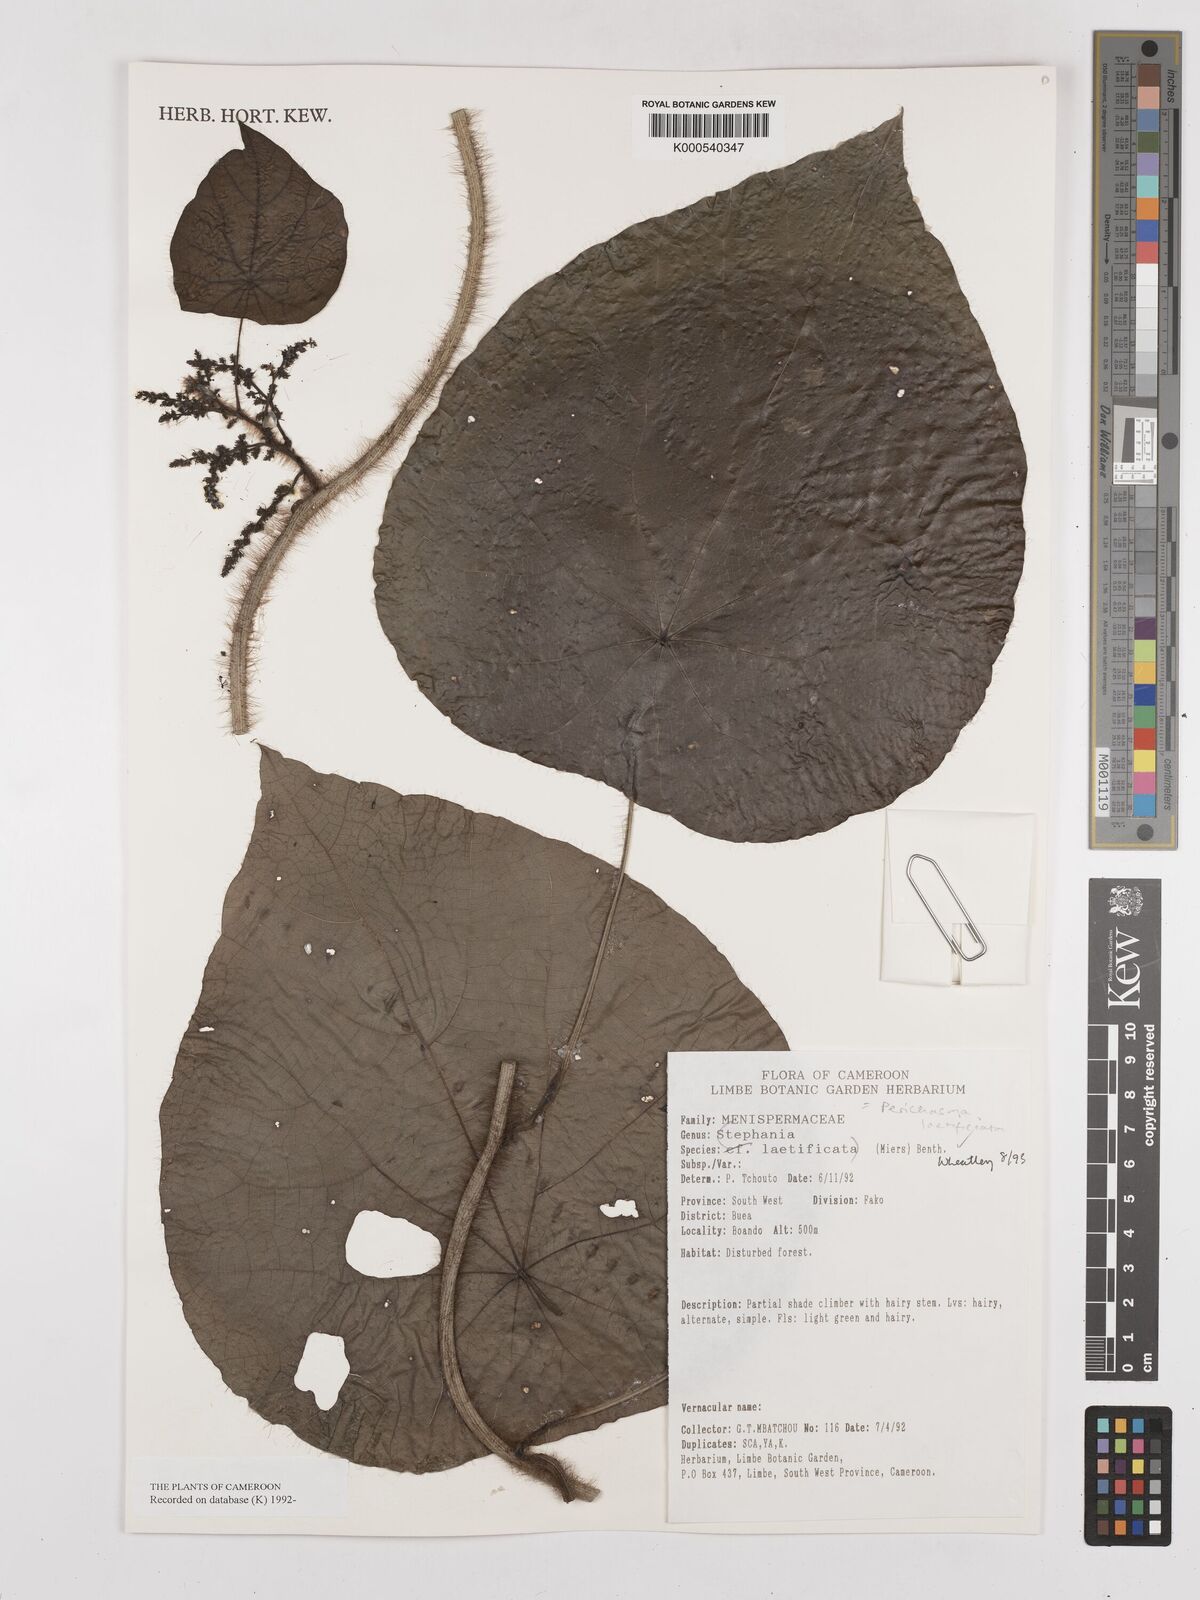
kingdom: Plantae
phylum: Tracheophyta
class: Magnoliopsida
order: Ranunculales
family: Menispermaceae
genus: Perichasma
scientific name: Perichasma laetificata
